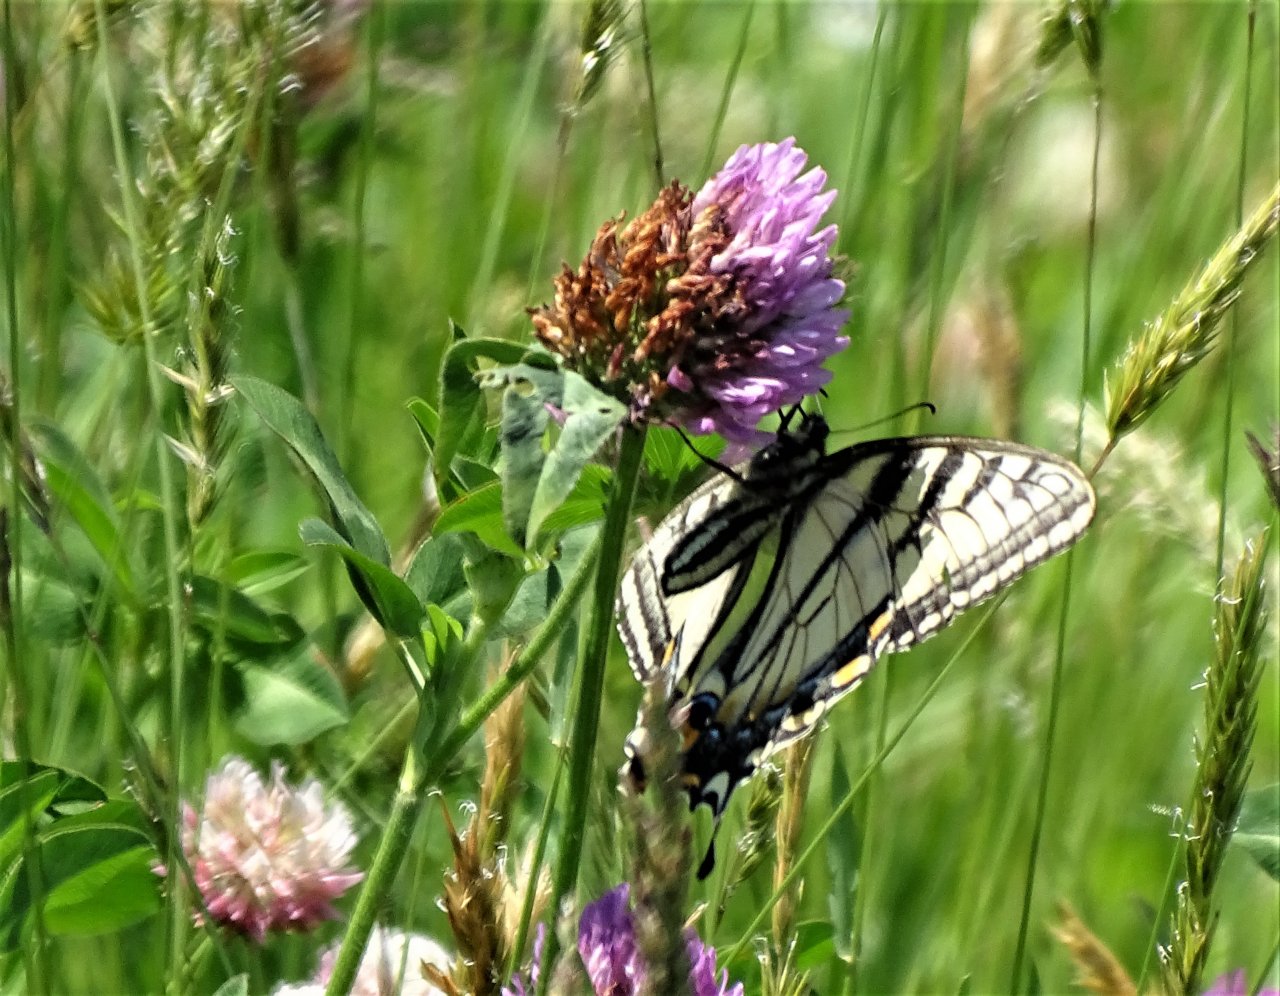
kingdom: Animalia
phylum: Arthropoda
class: Insecta
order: Lepidoptera
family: Papilionidae
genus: Pterourus
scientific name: Pterourus canadensis
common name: Canadian Tiger Swallowtail
